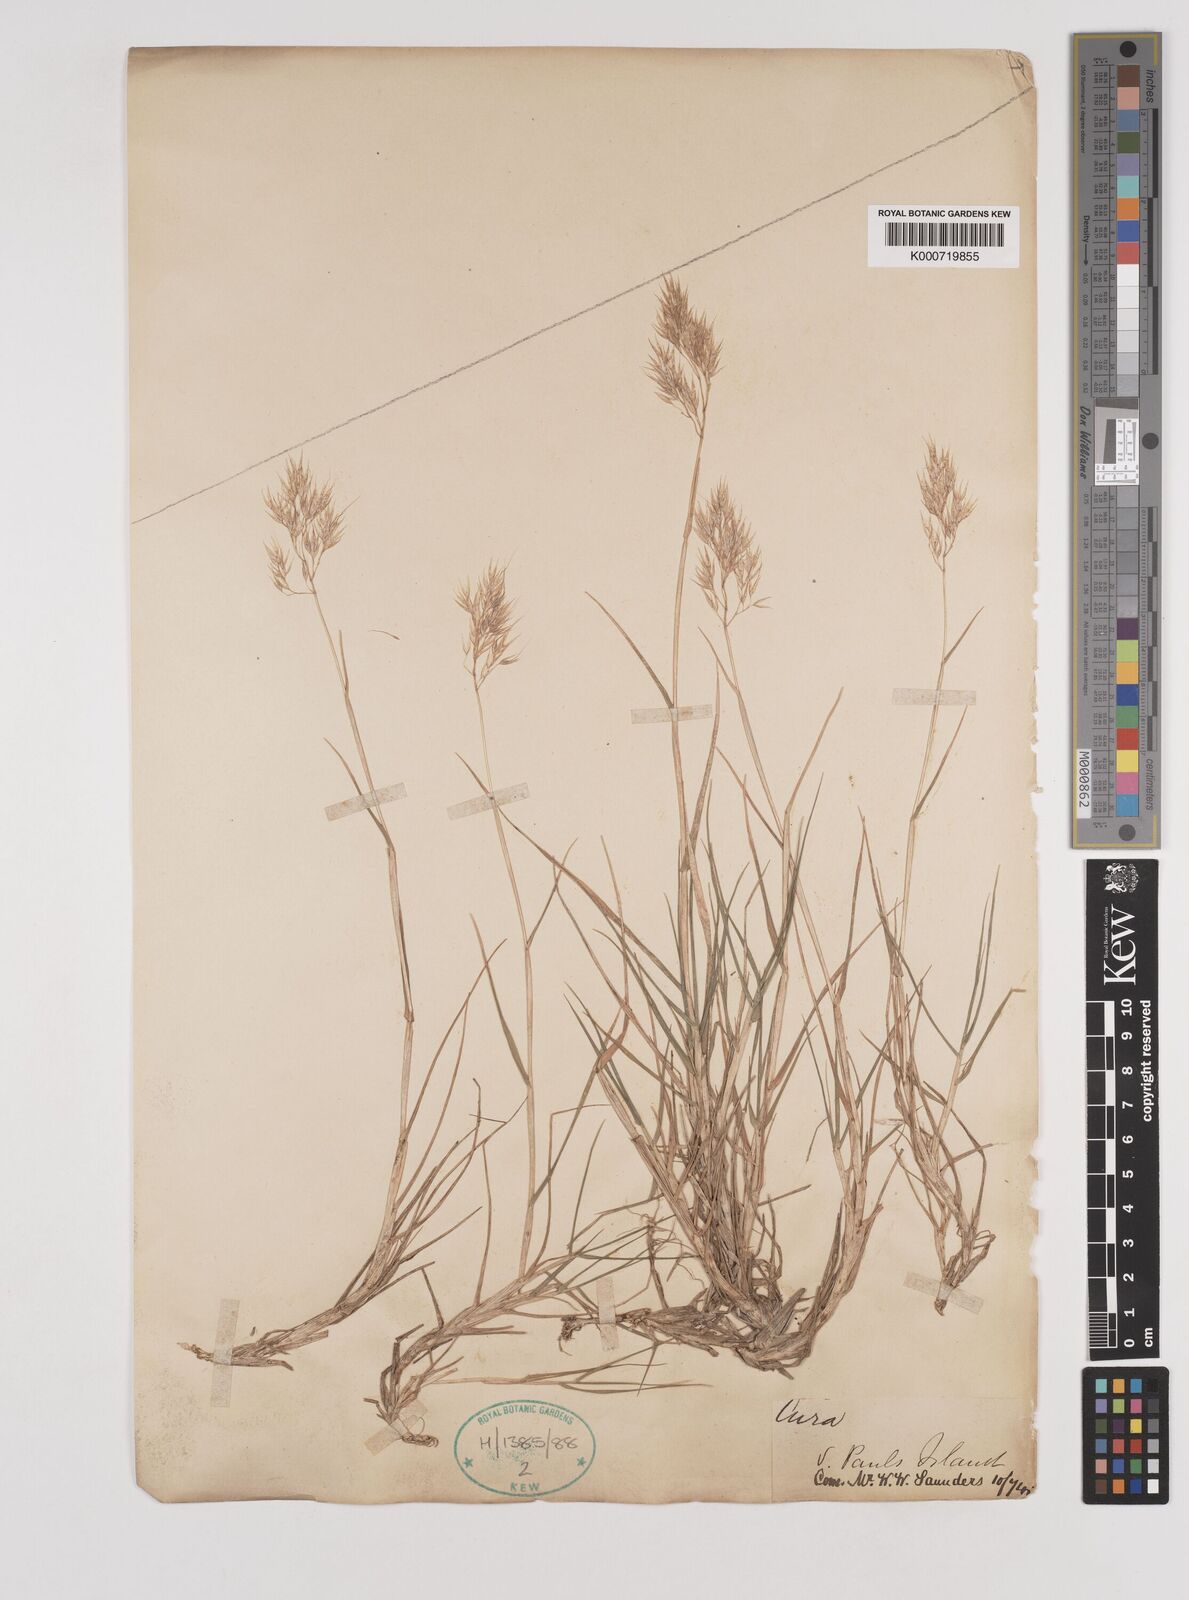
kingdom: Plantae
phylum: Tracheophyta
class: Liliopsida
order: Poales
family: Poaceae
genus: Pentameris
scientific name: Pentameris insularis
